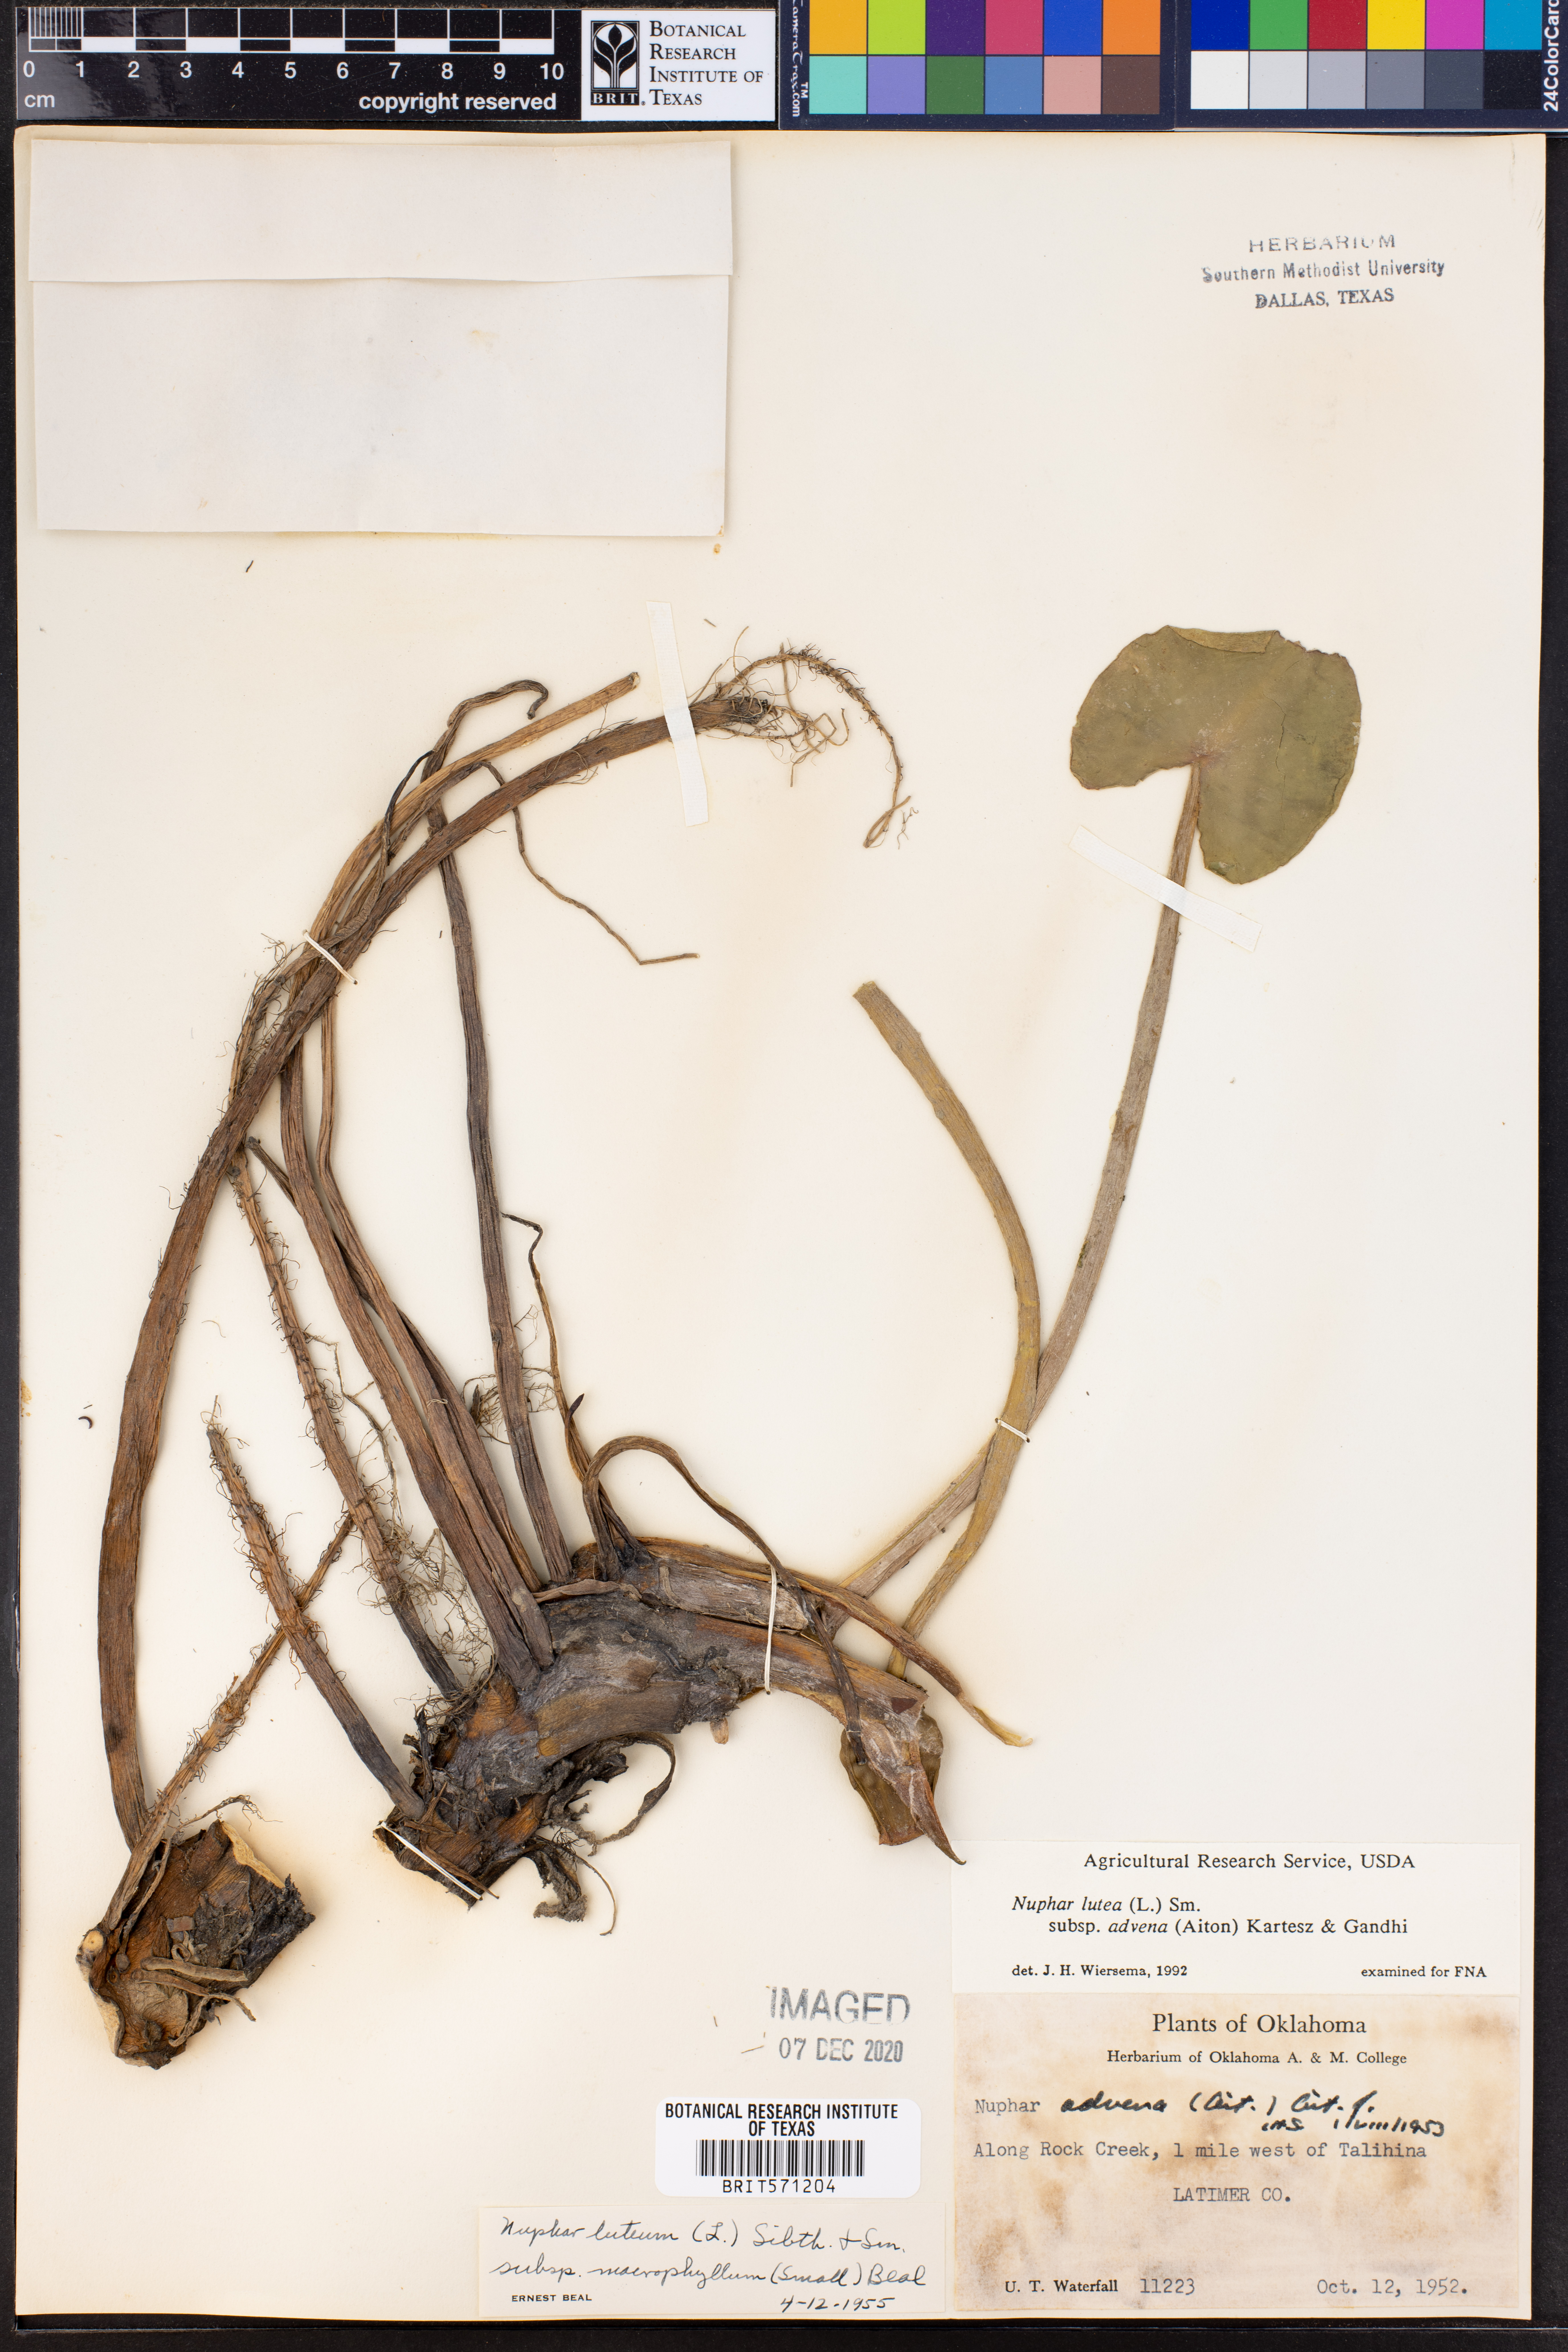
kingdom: Plantae
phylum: Tracheophyta
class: Magnoliopsida
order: Nymphaeales
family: Nymphaeaceae
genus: Nuphar
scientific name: Nuphar advena
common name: Spatter-dock
